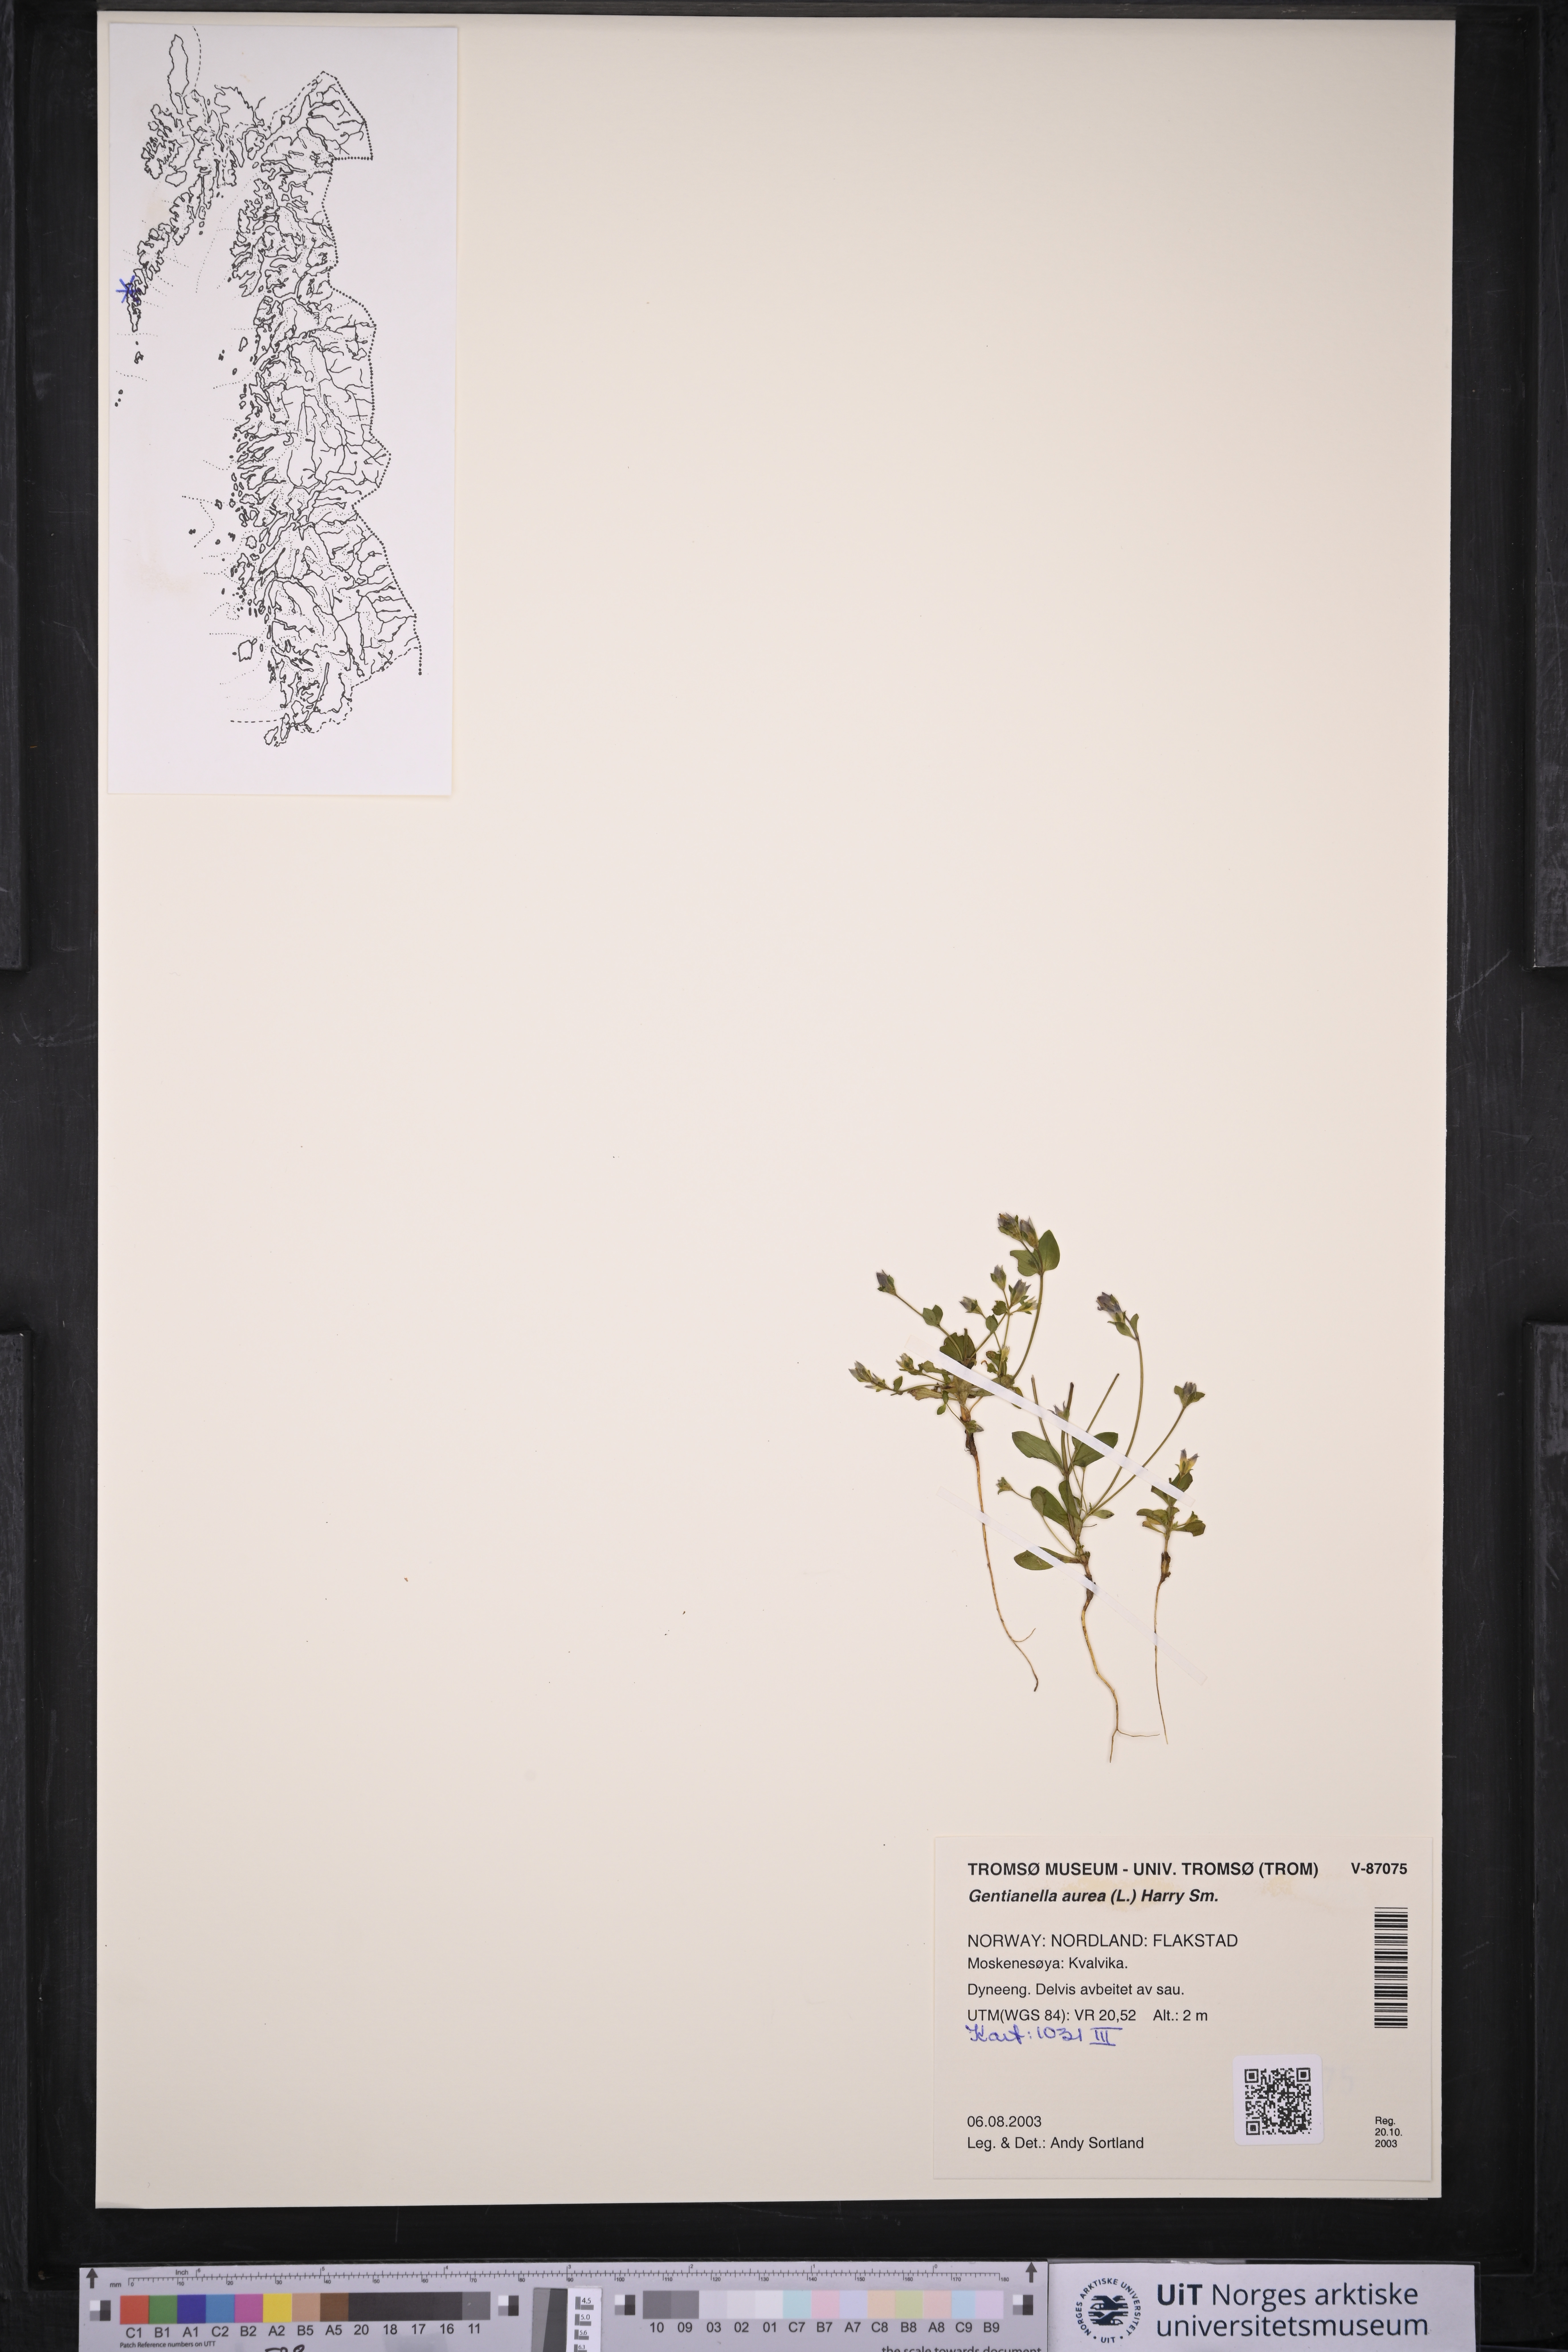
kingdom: Plantae
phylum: Tracheophyta
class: Magnoliopsida
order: Gentianales
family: Gentianaceae
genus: Gentianella
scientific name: Gentianella aurea
